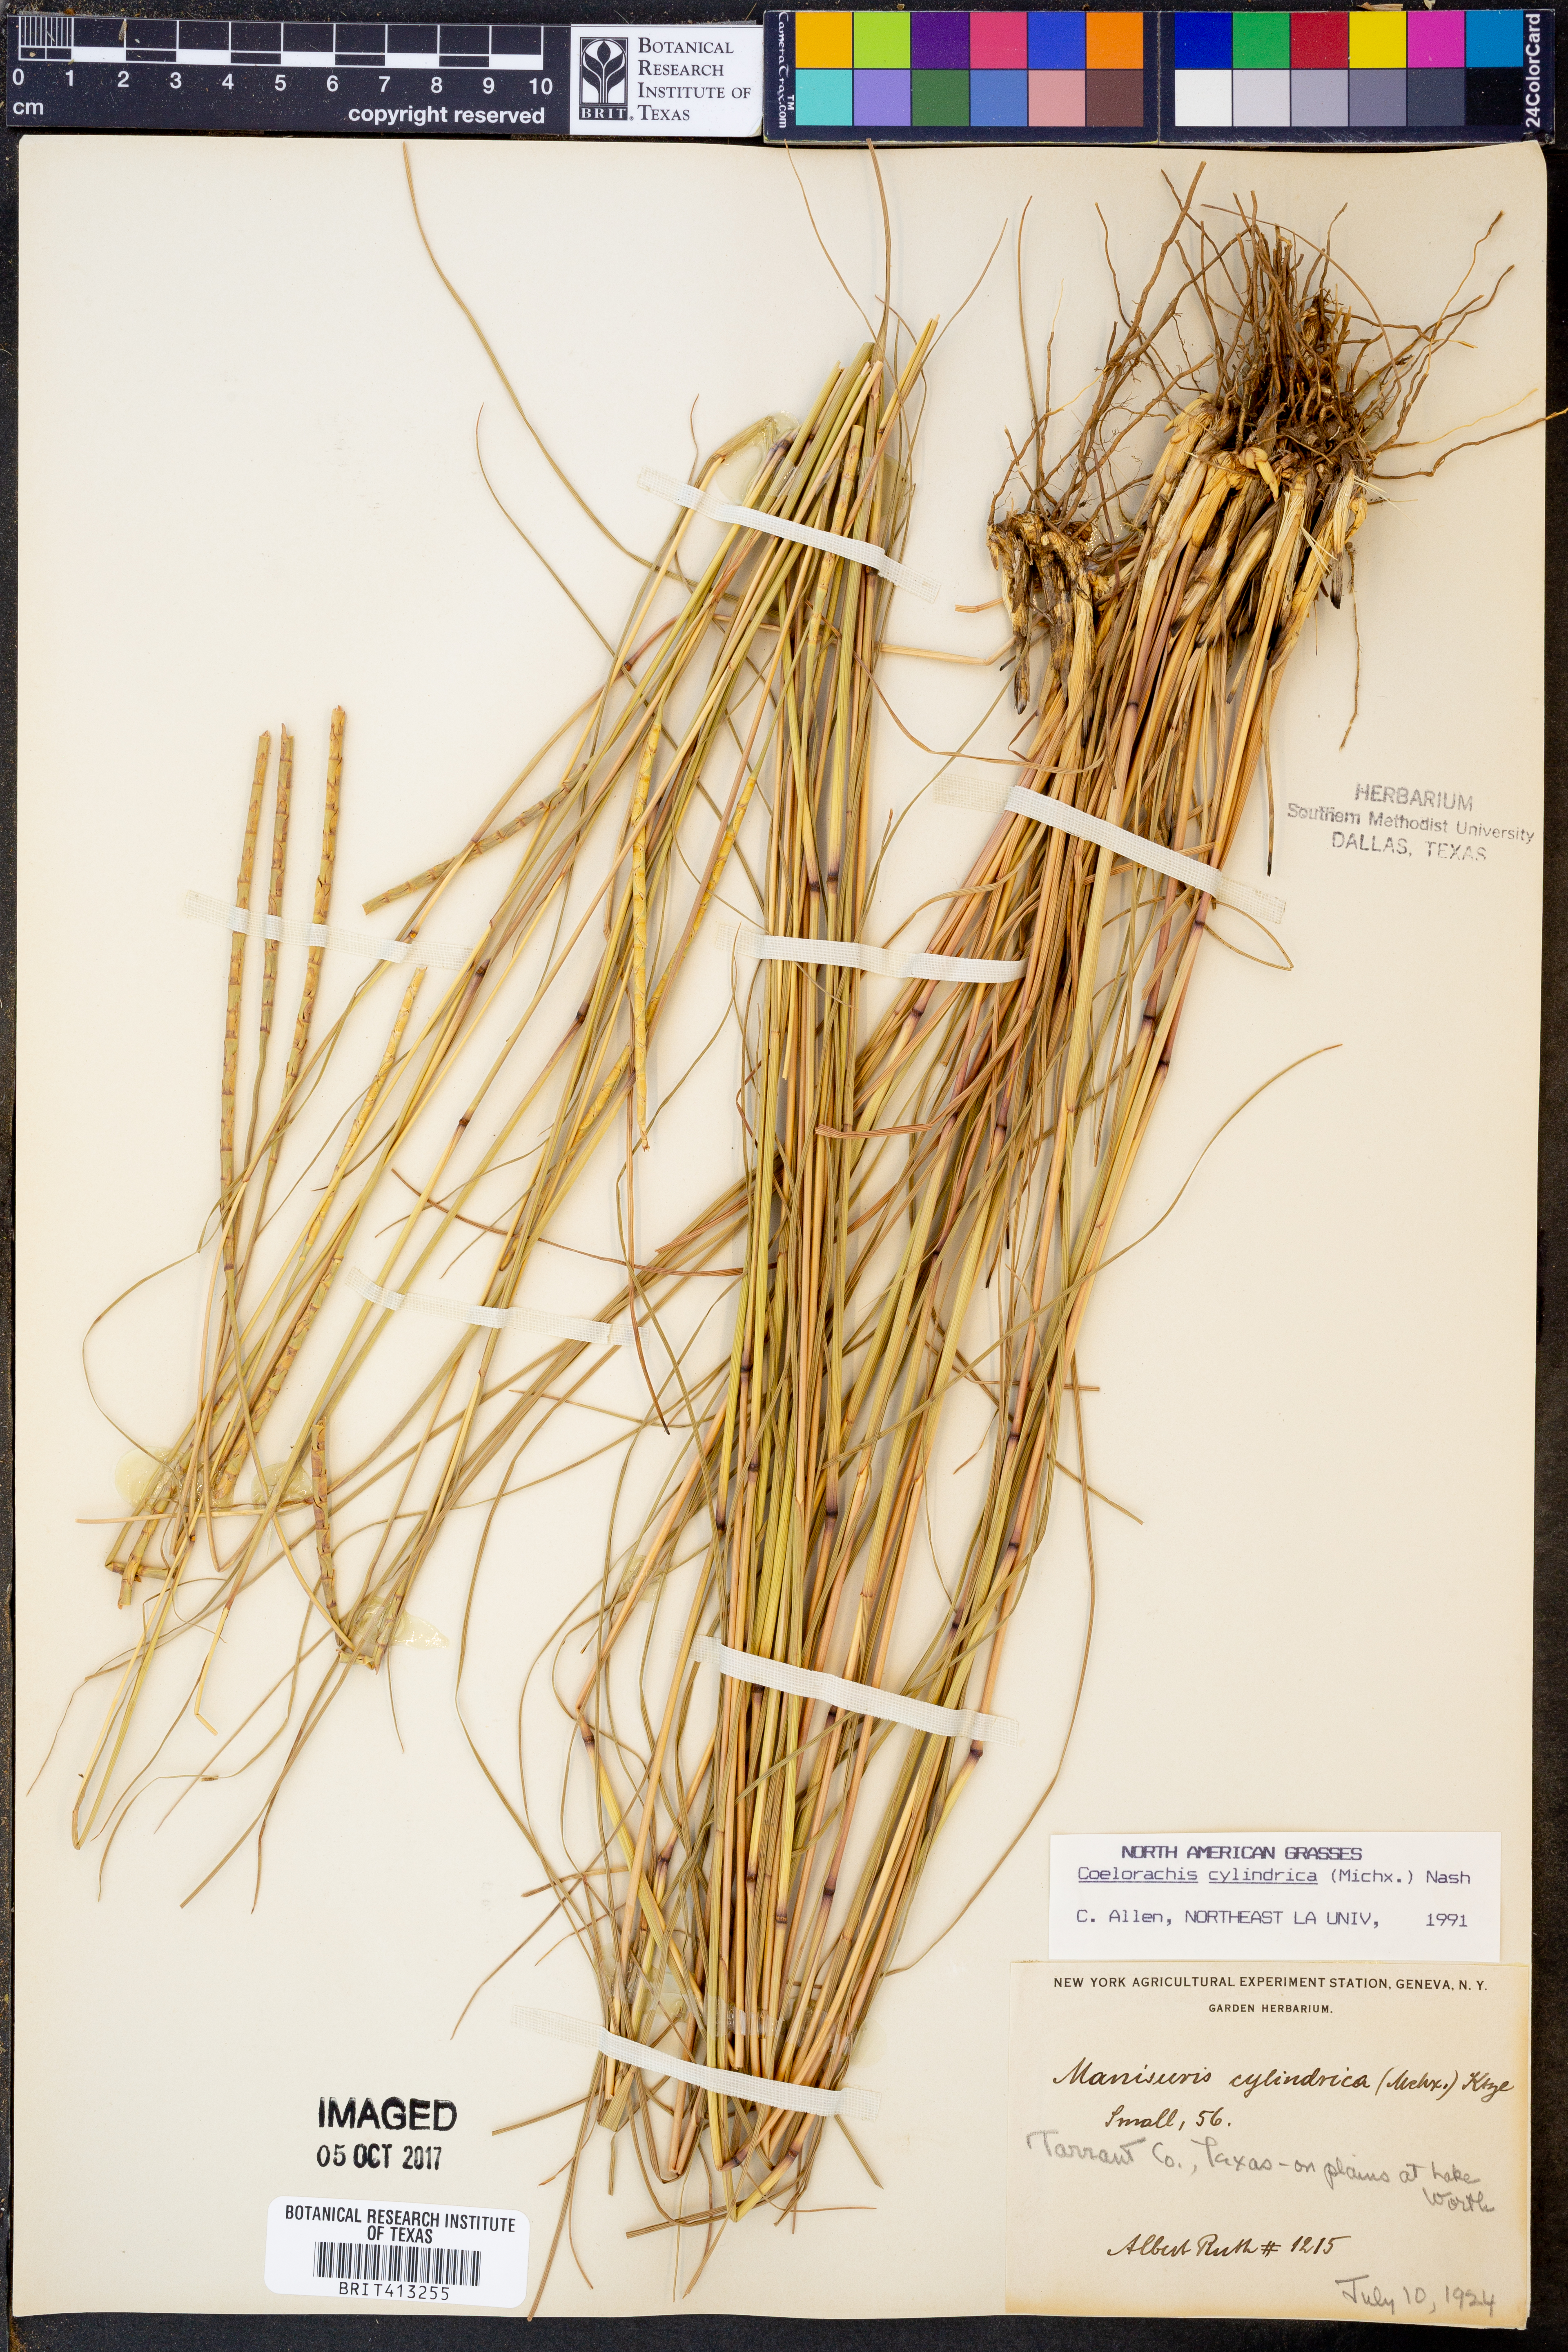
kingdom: Plantae
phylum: Tracheophyta
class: Liliopsida
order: Poales
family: Poaceae
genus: Rottboellia
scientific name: Rottboellia campestris
